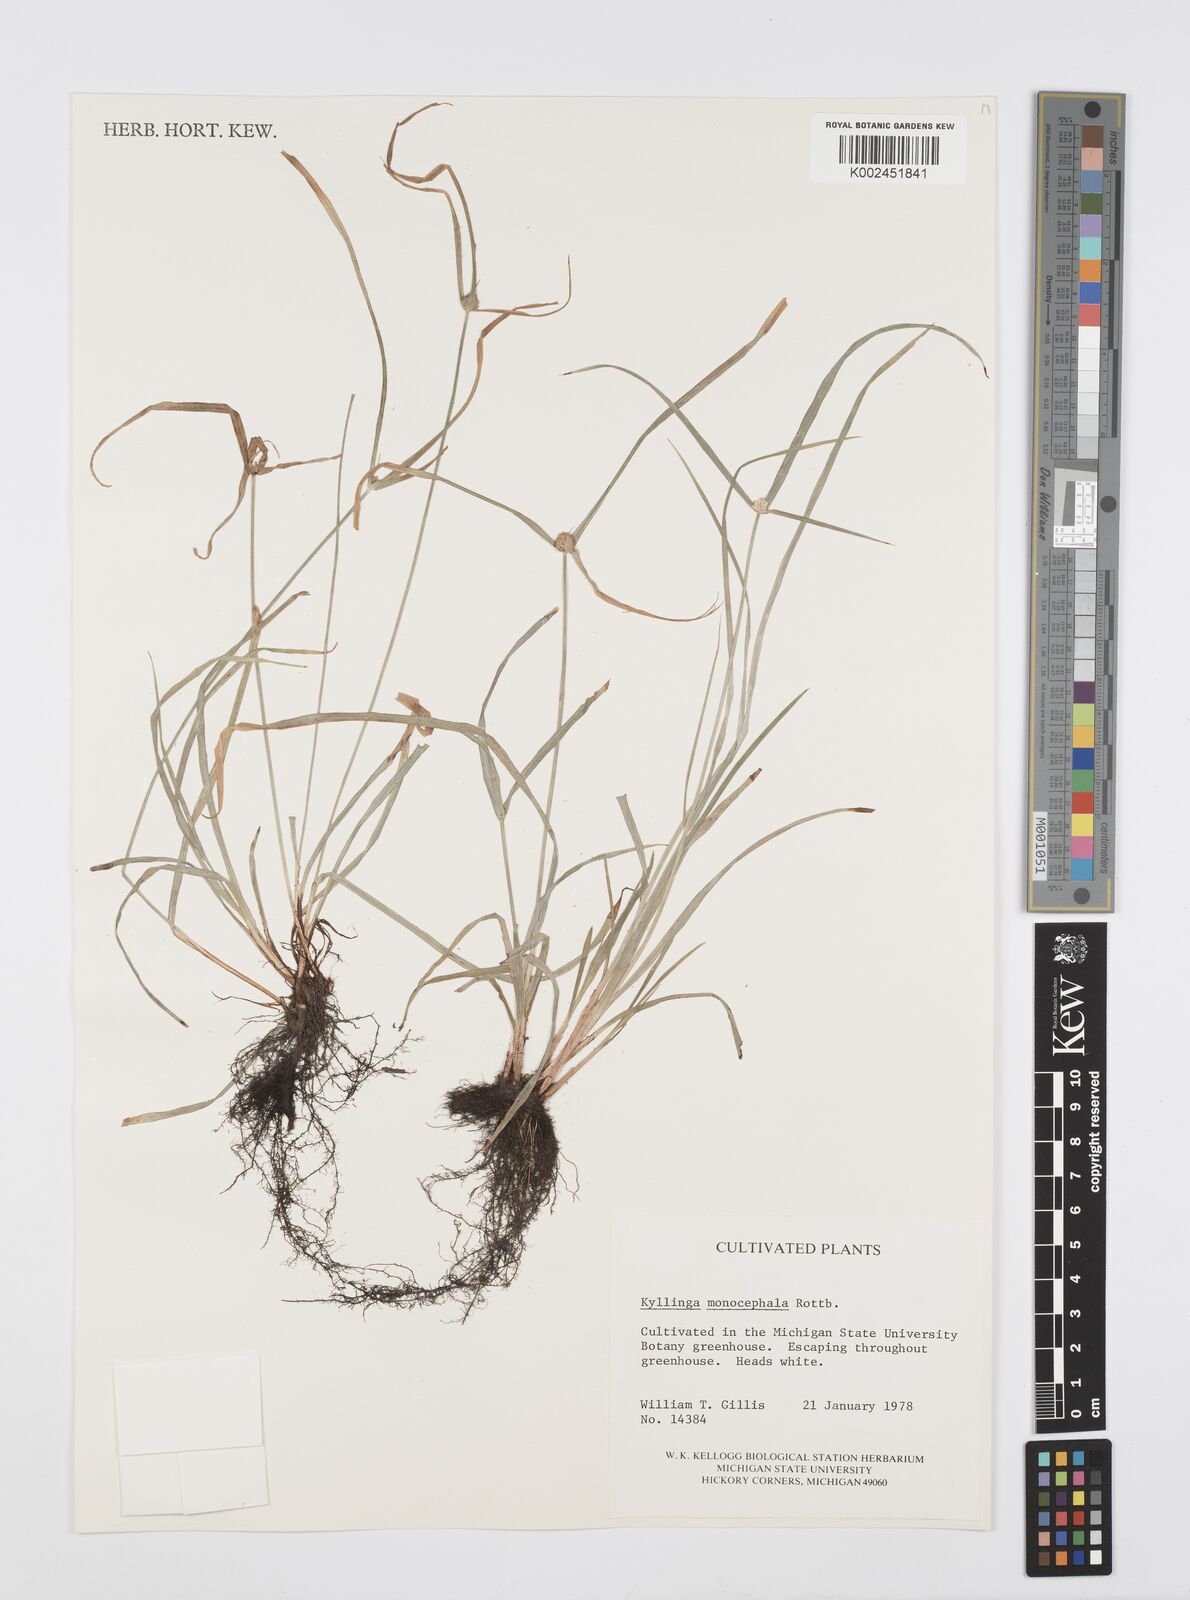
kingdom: Plantae
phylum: Tracheophyta
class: Liliopsida
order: Poales
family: Cyperaceae
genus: Cyperus
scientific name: Cyperus nemoralis
